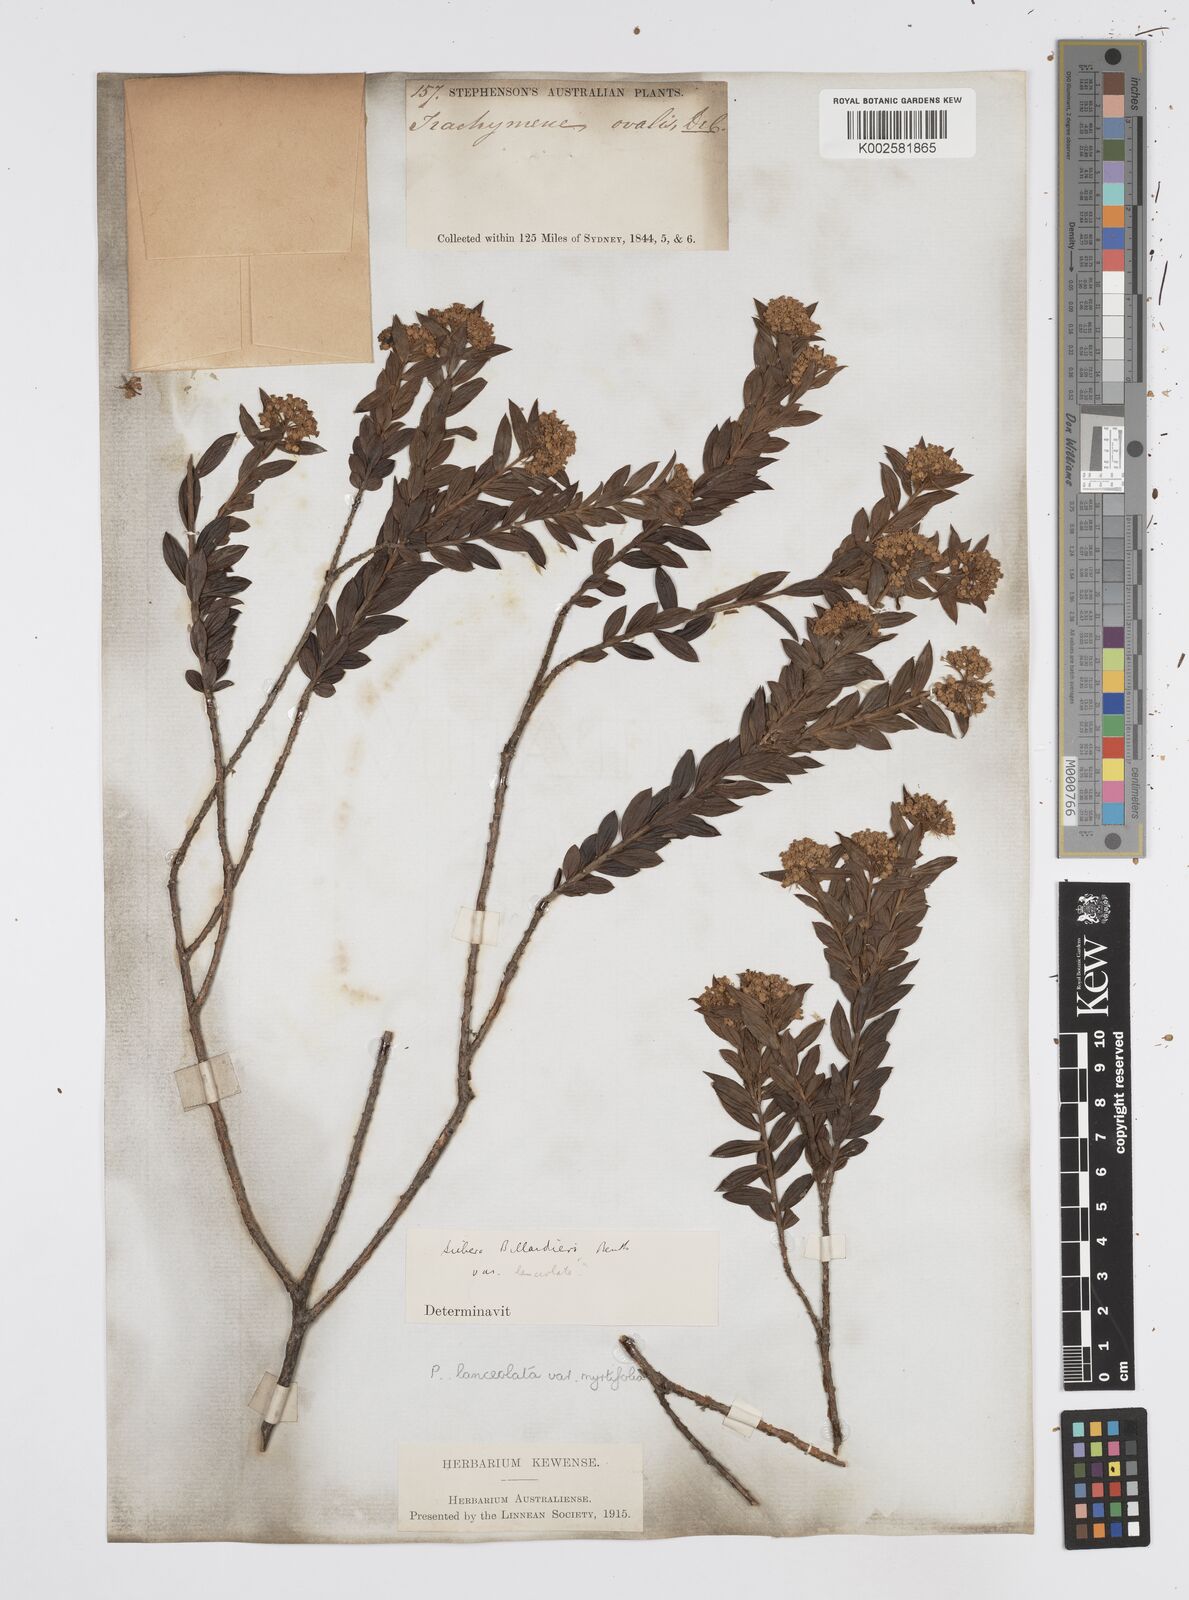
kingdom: Plantae
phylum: Tracheophyta
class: Magnoliopsida
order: Apiales
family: Apiaceae
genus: Platysace
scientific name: Platysace lanceolata
